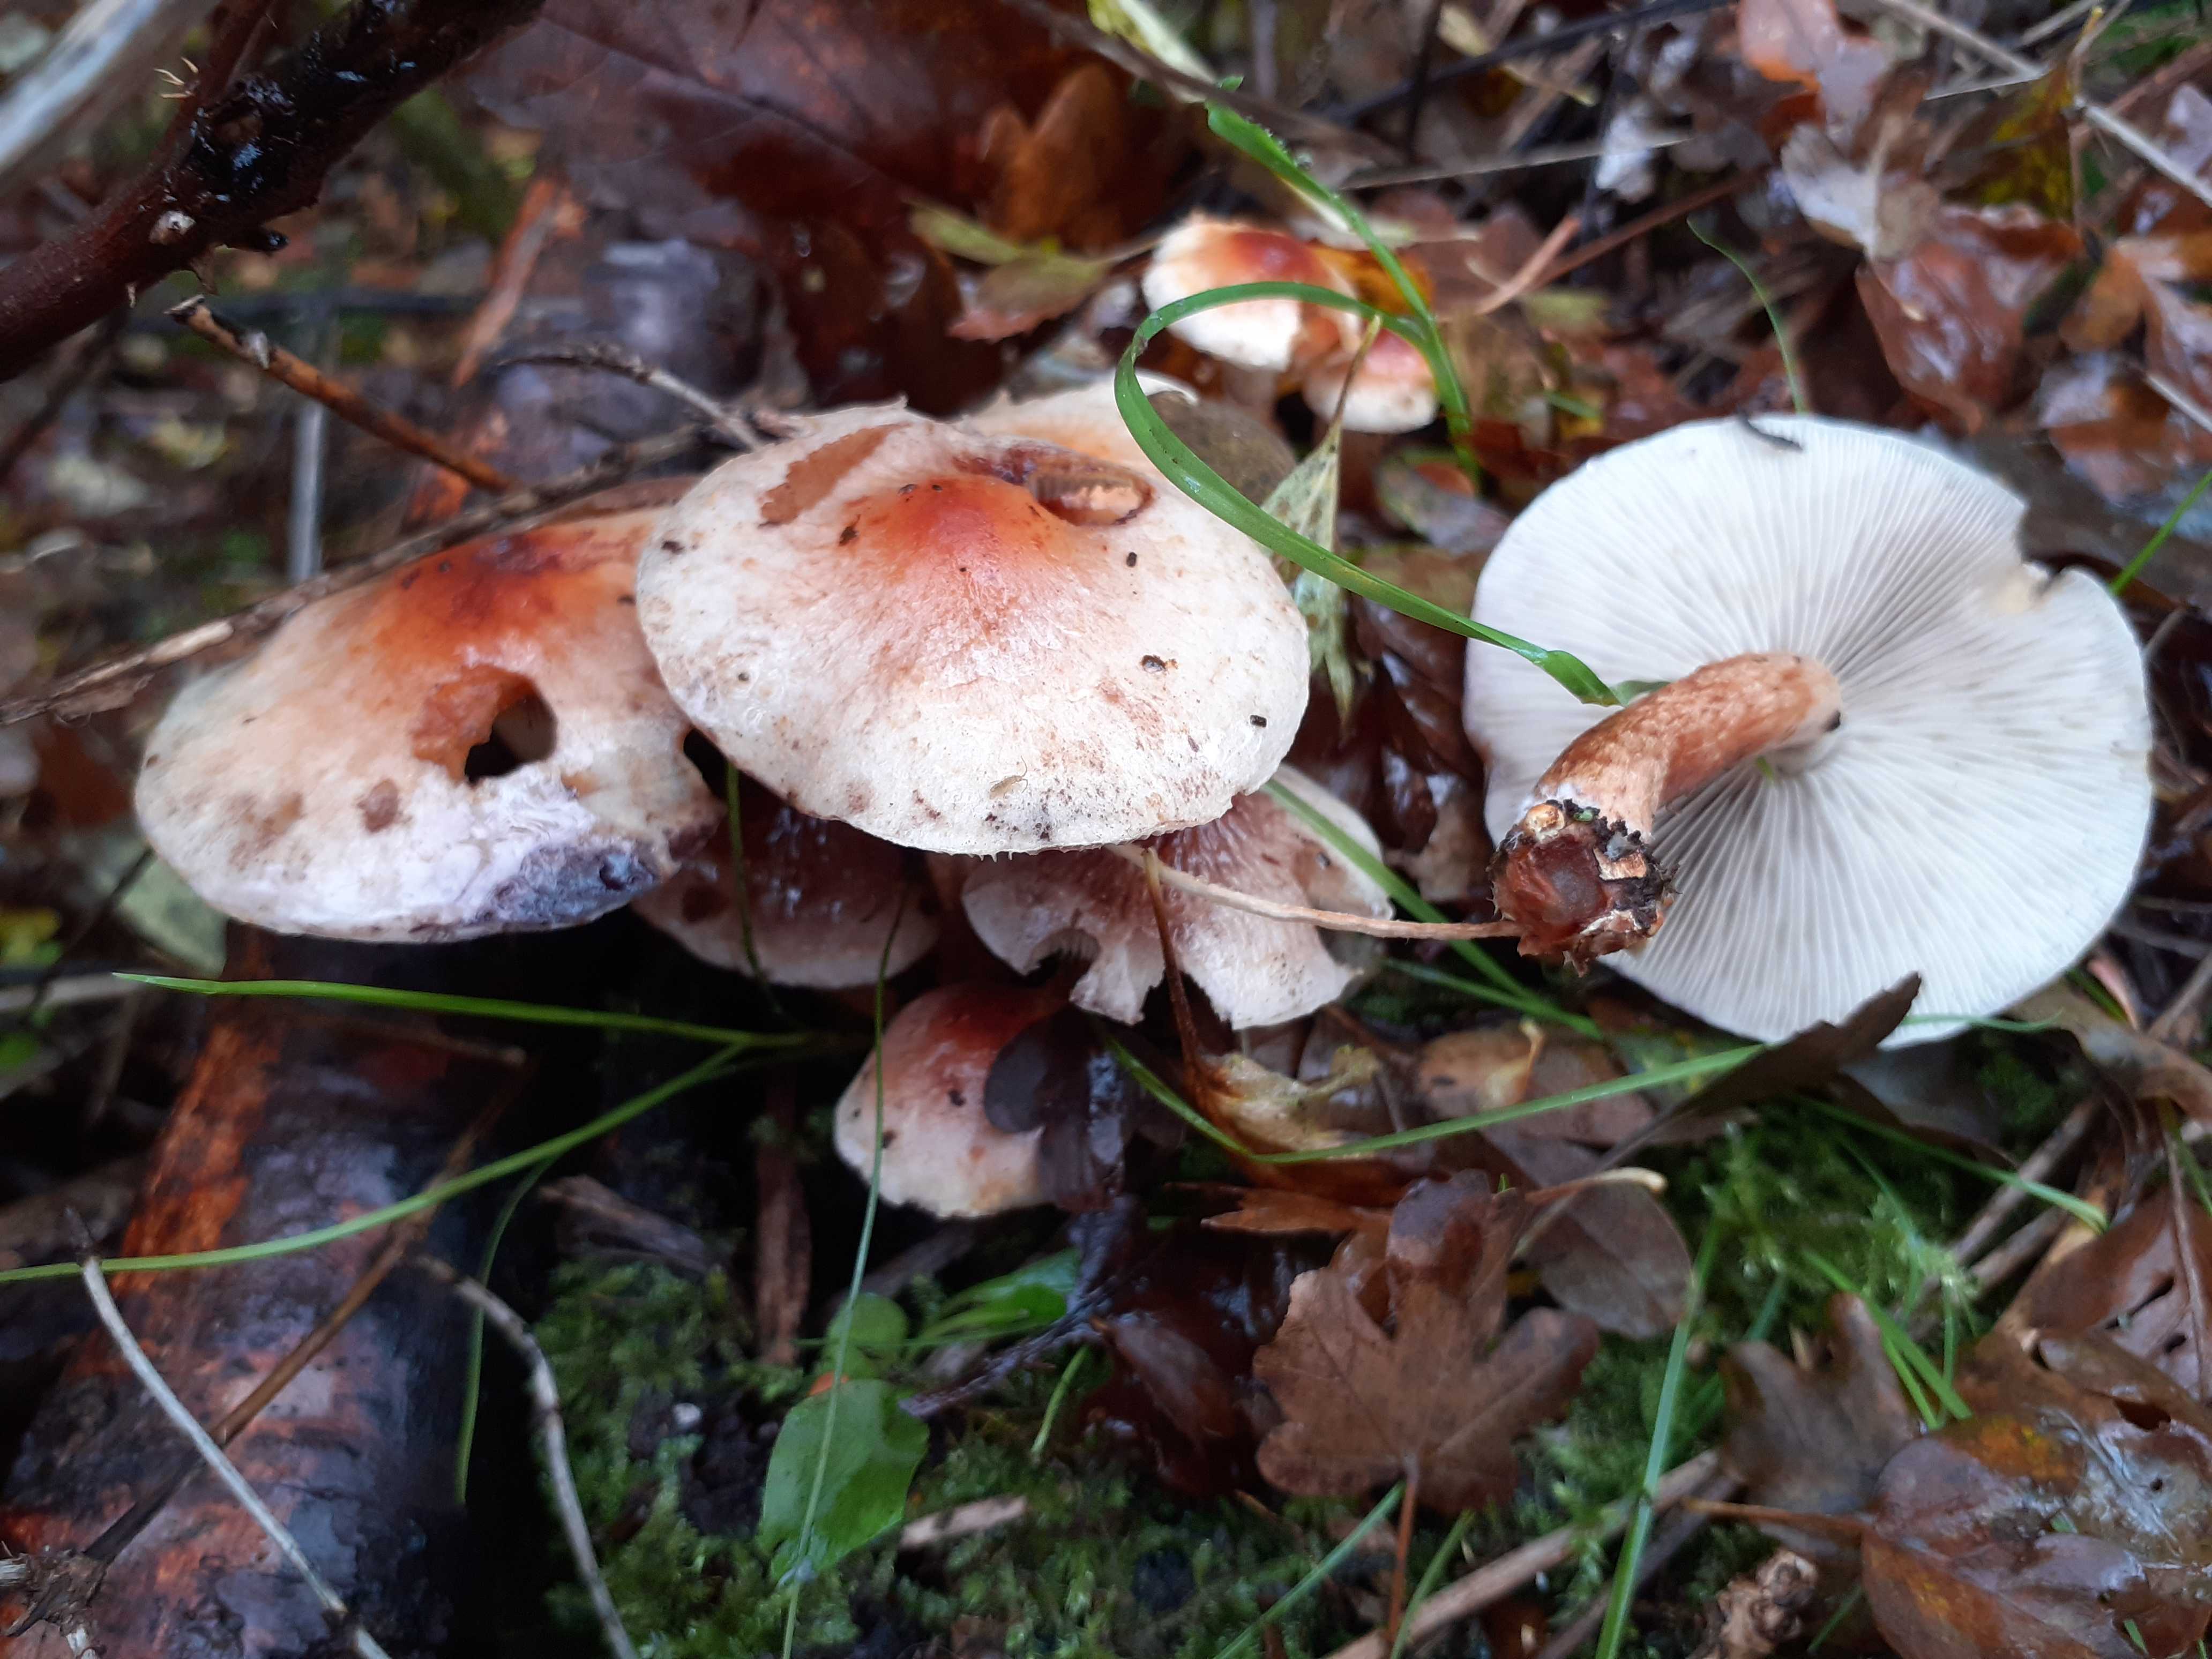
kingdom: Fungi
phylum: Basidiomycota
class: Agaricomycetes
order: Agaricales
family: Strophariaceae
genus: Hypholoma
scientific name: Hypholoma lateritium
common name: teglrød svovlhat
